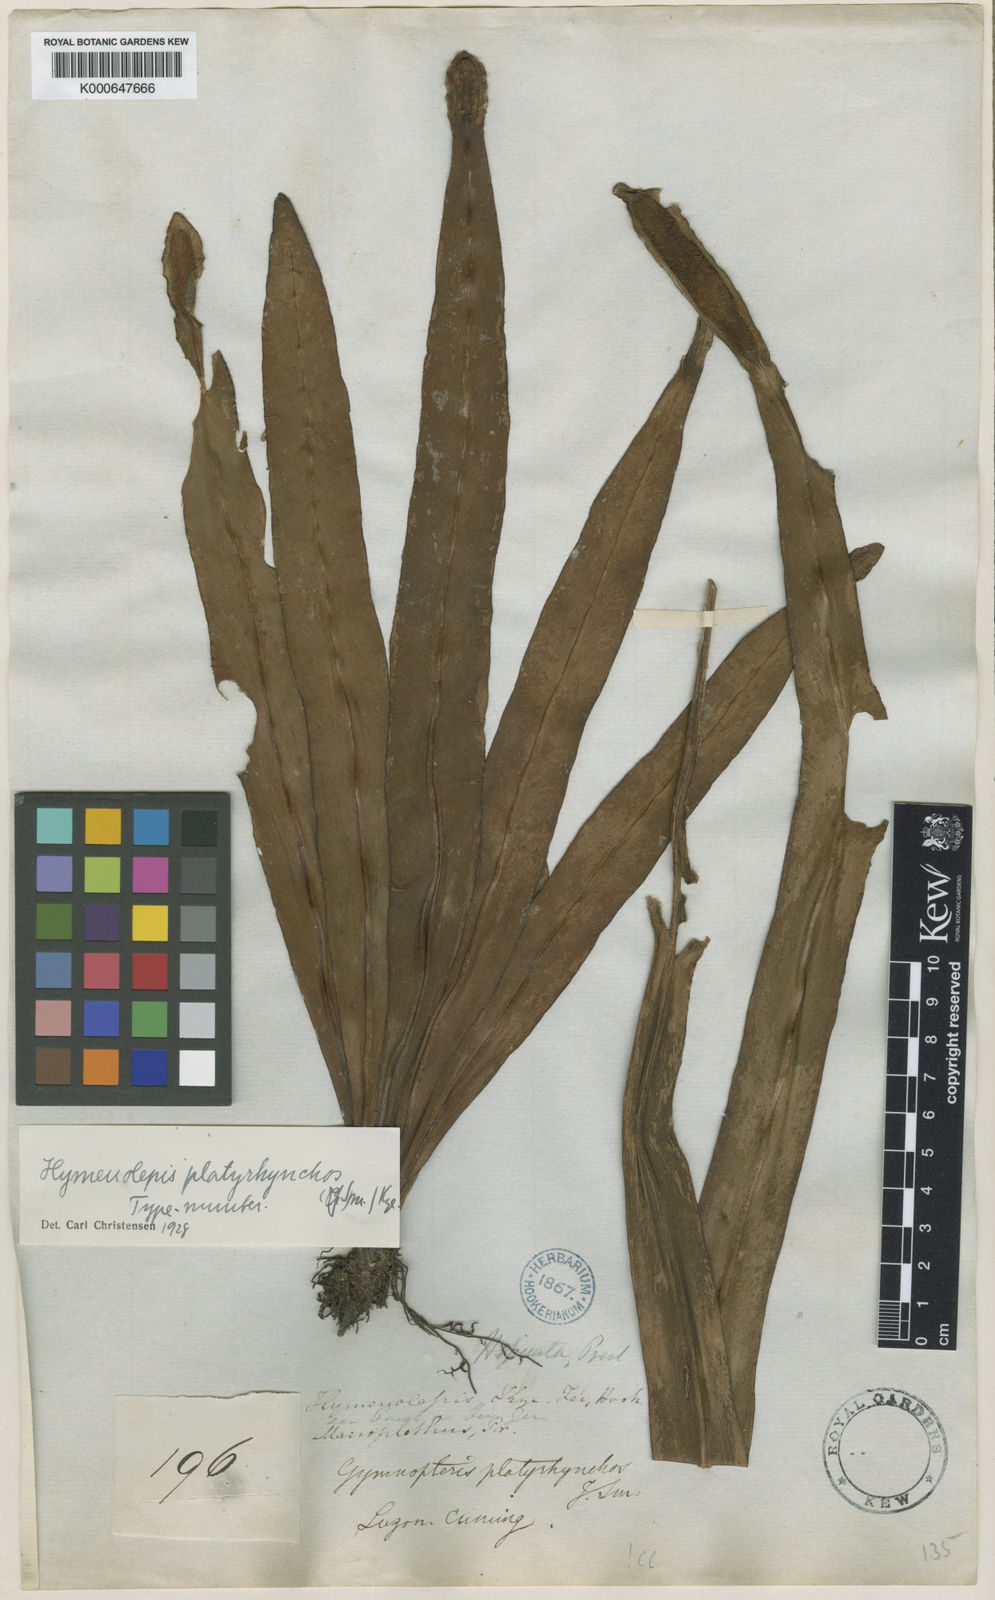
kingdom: Plantae
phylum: Tracheophyta
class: Polypodiopsida
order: Polypodiales
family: Polypodiaceae
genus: Lepisorus
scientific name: Lepisorus platyrhynchos
